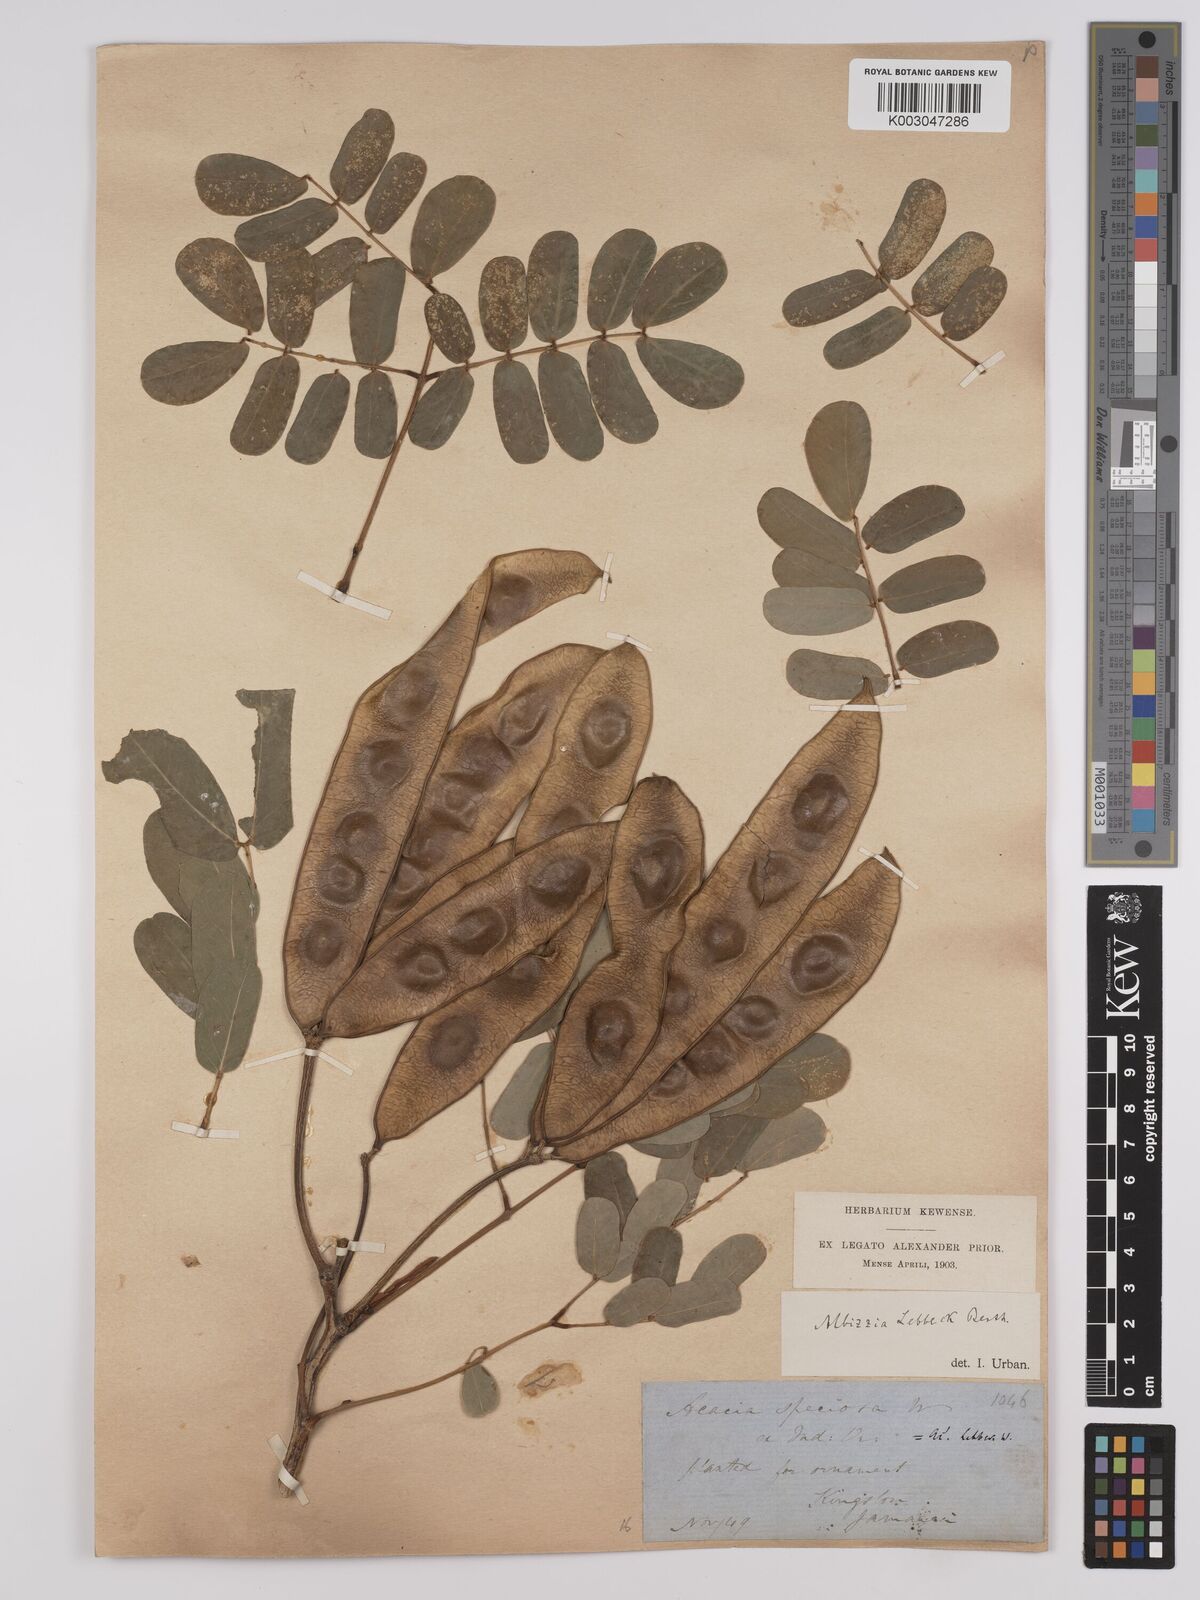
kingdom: Plantae
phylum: Tracheophyta
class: Magnoliopsida
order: Fabales
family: Fabaceae
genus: Albizia
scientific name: Albizia lebbeck
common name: Woman's tongue
